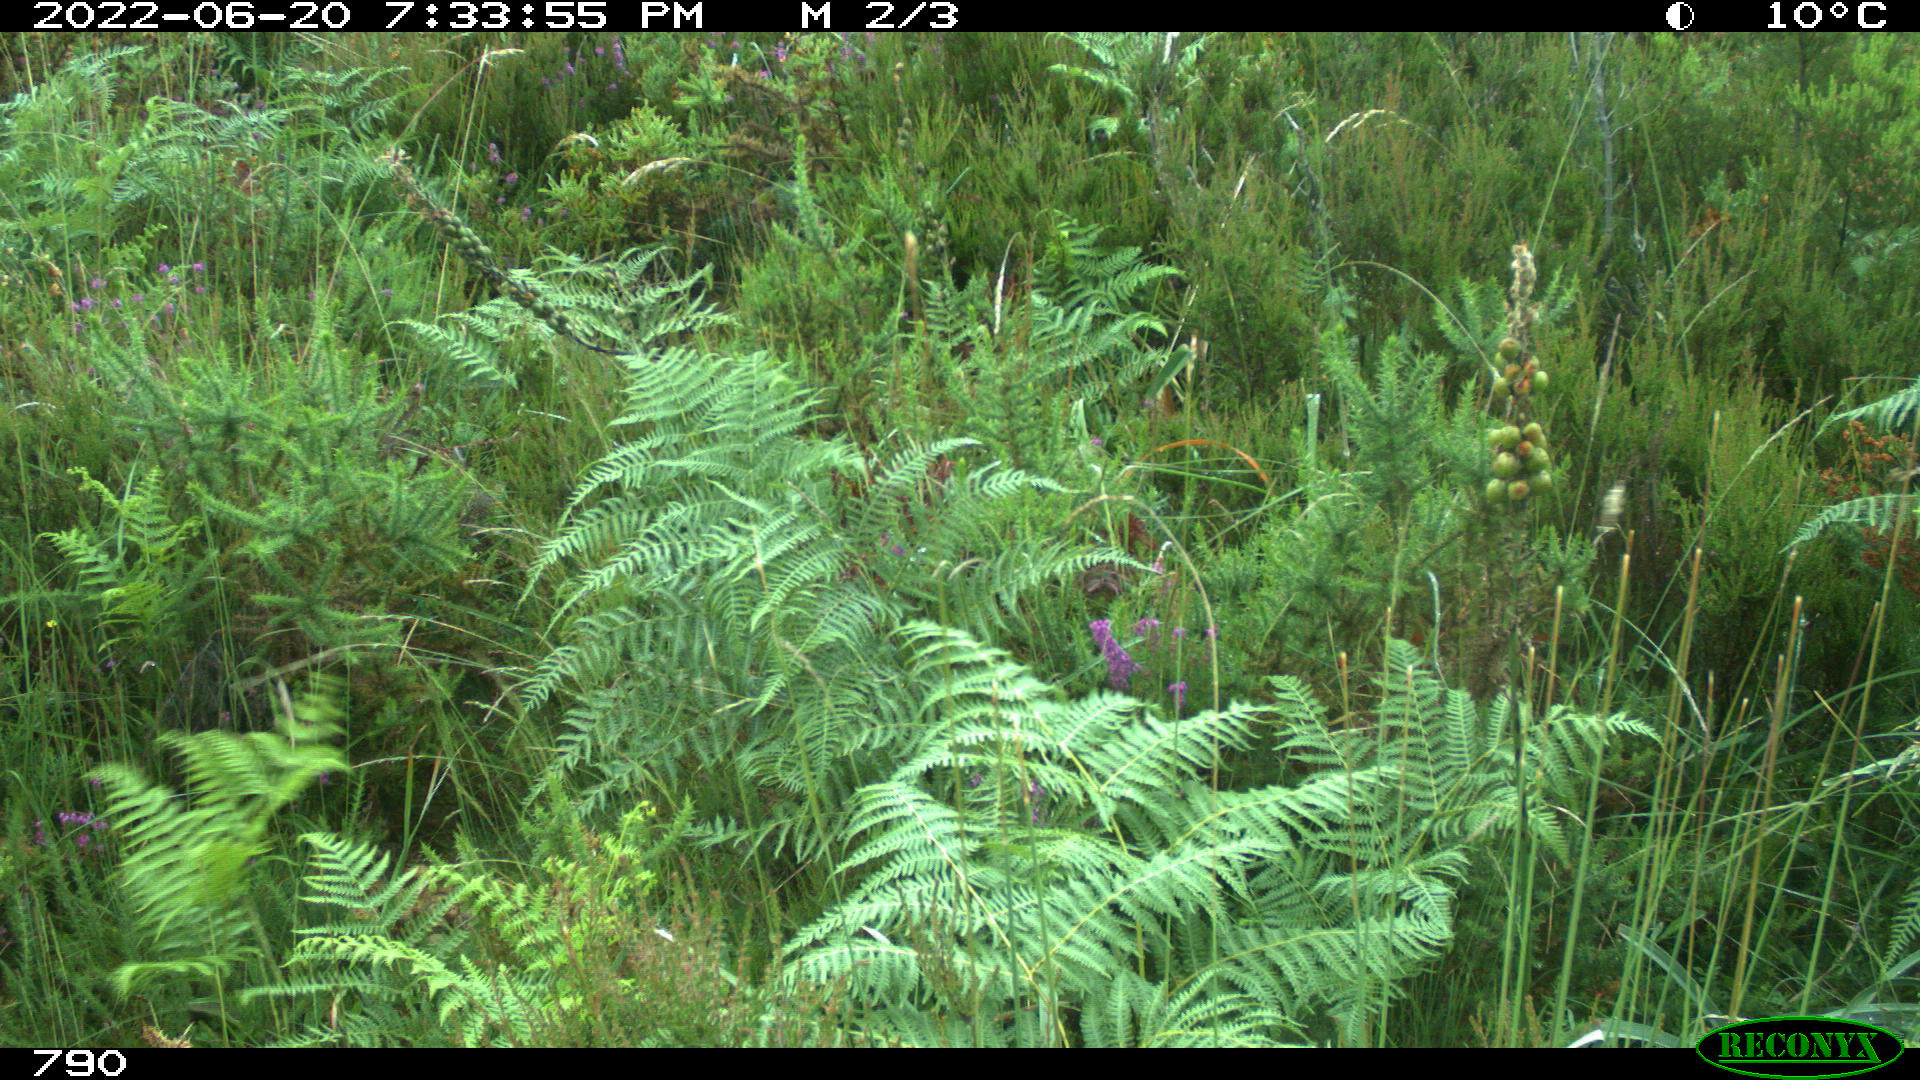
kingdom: Animalia
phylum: Chordata
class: Mammalia
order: Artiodactyla
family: Cervidae
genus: Capreolus
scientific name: Capreolus capreolus
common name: Western roe deer
